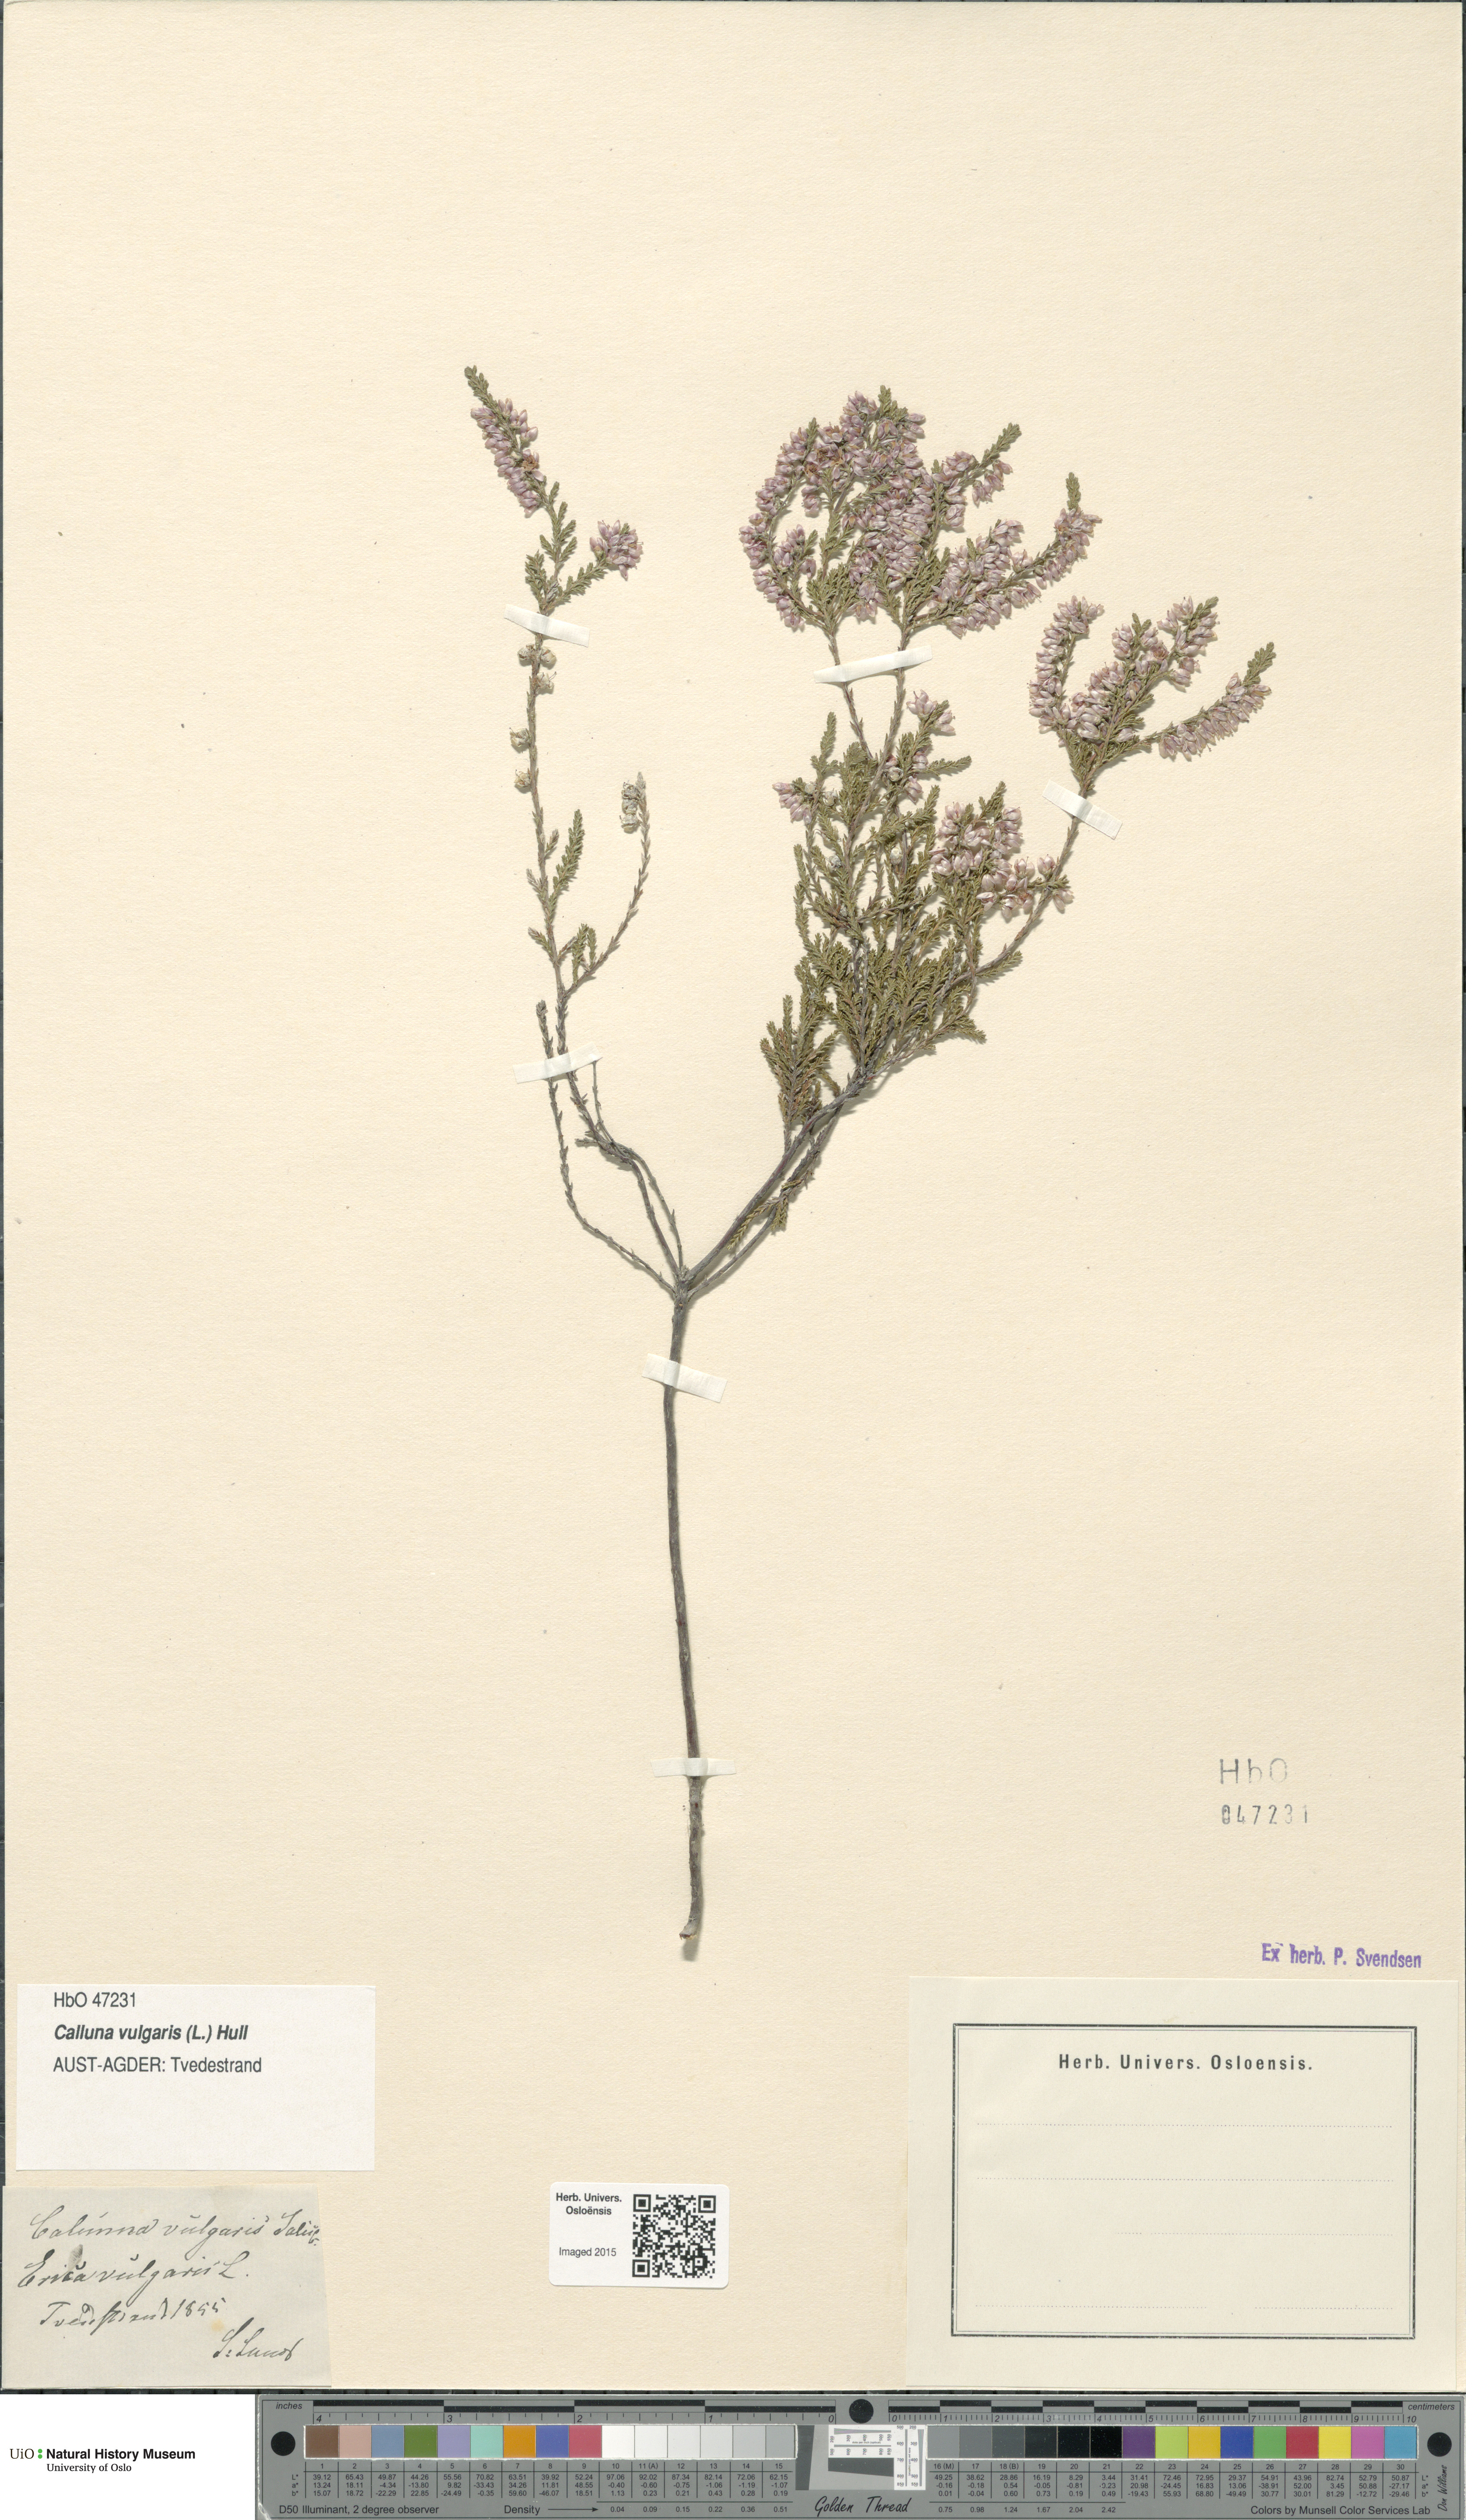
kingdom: Plantae
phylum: Tracheophyta
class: Magnoliopsida
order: Ericales
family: Ericaceae
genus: Calluna
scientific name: Calluna vulgaris
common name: Heather
